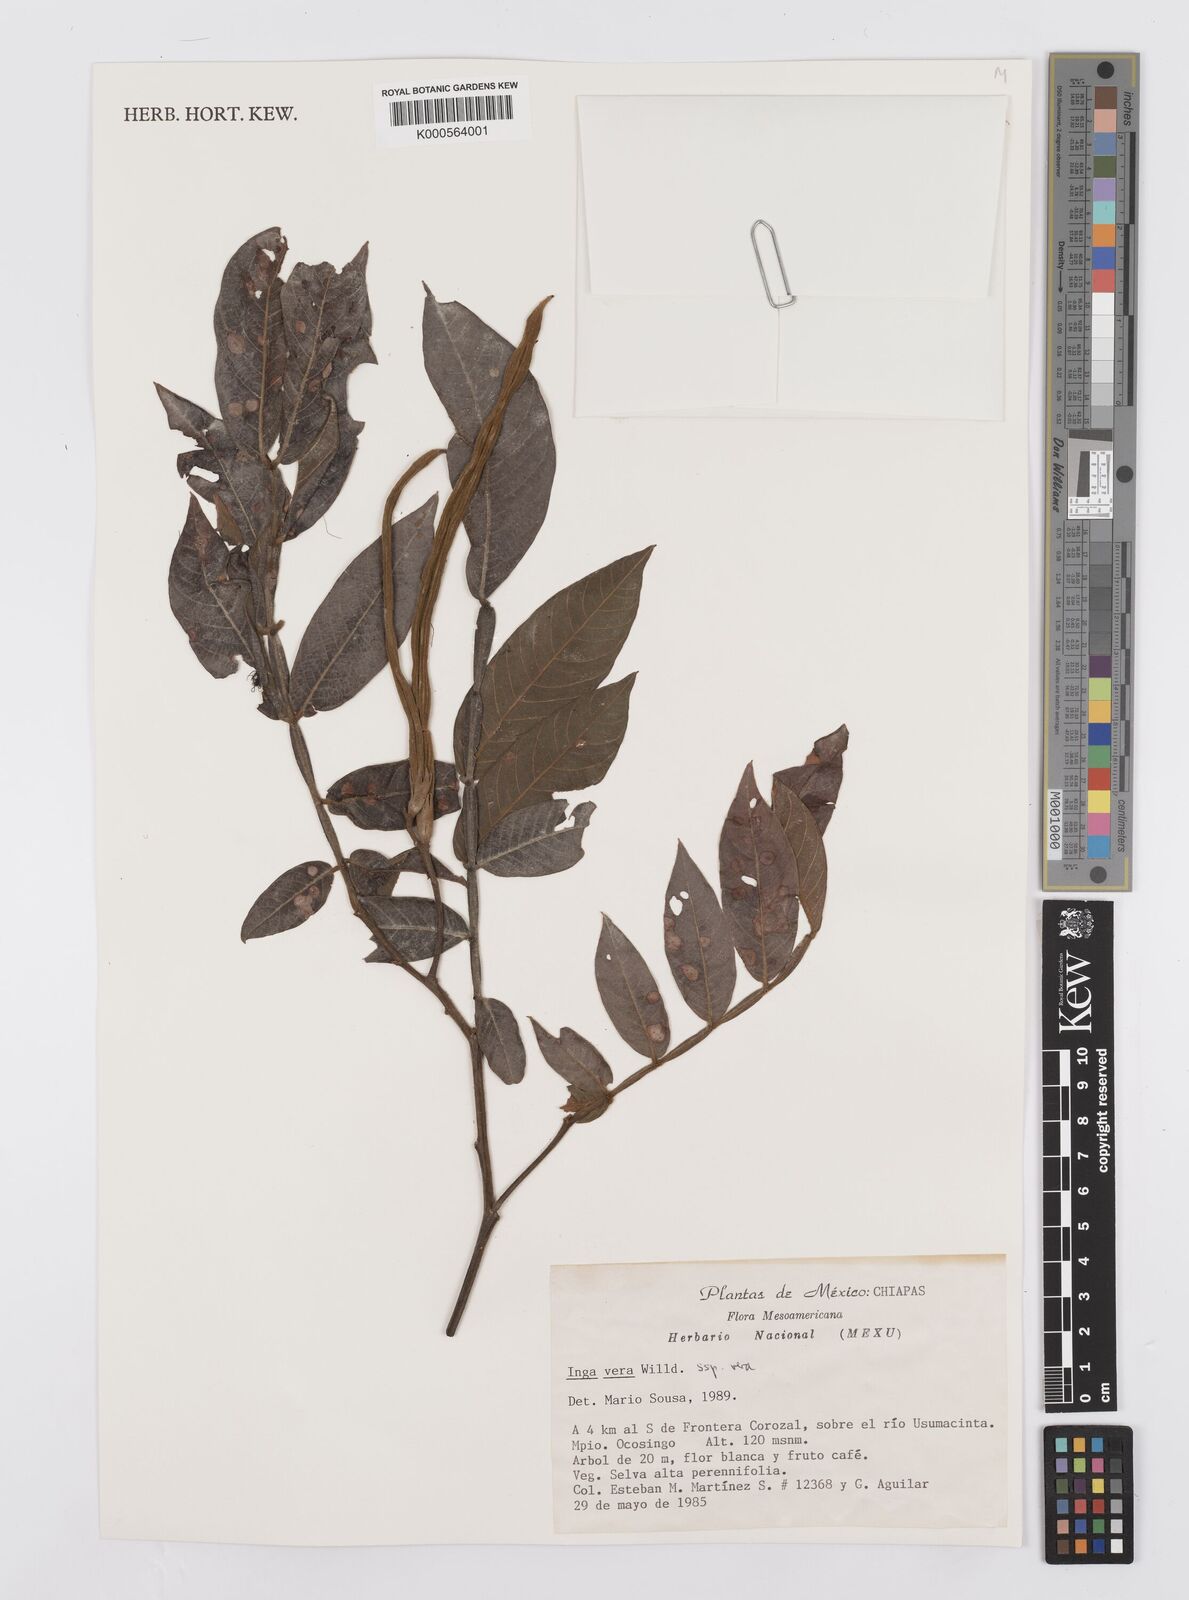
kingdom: Plantae
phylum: Tracheophyta
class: Magnoliopsida
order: Fabales
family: Fabaceae
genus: Inga
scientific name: Inga vera
